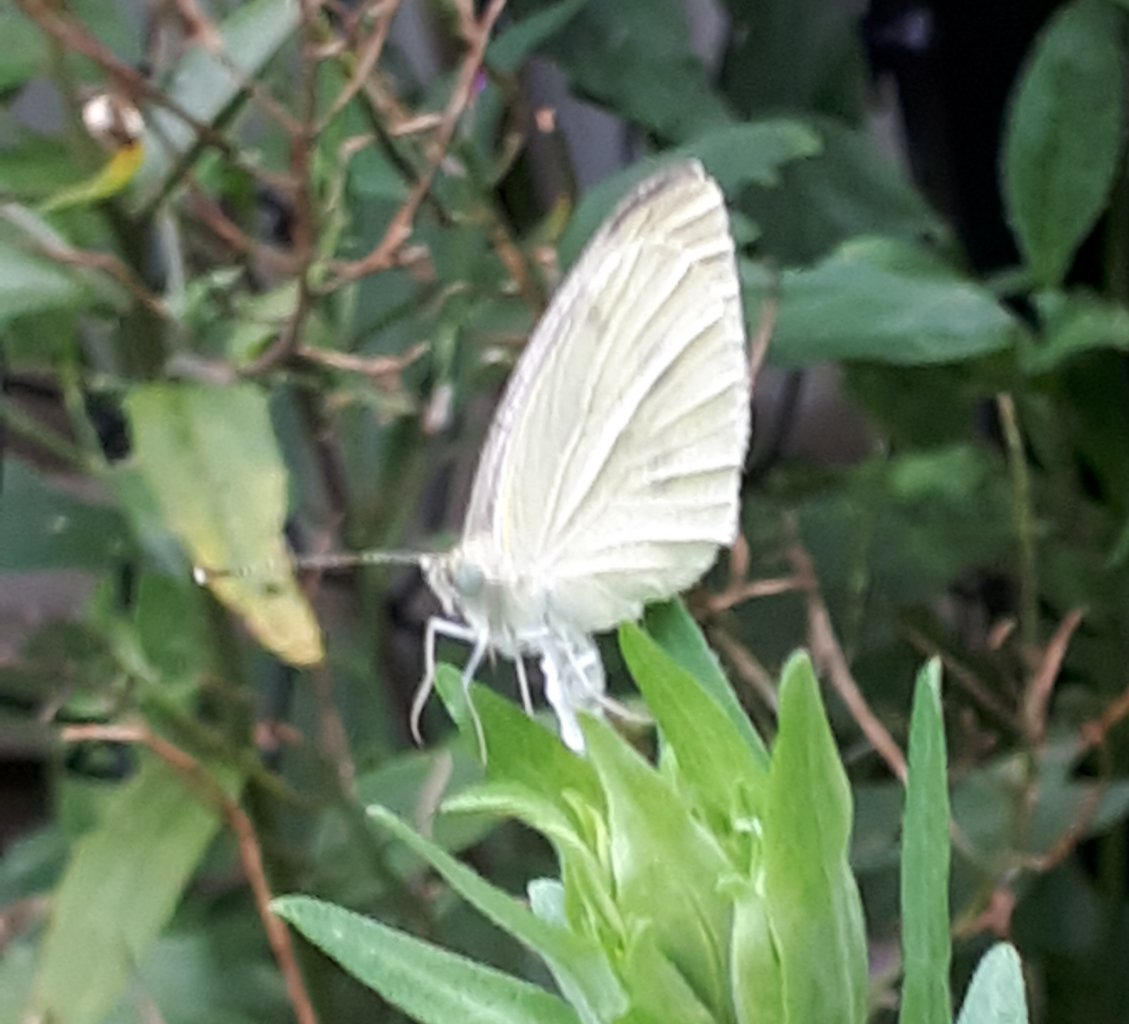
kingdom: Animalia
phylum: Arthropoda
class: Insecta
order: Lepidoptera
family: Pieridae
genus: Pieris
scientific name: Pieris rapae
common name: Cabbage White
